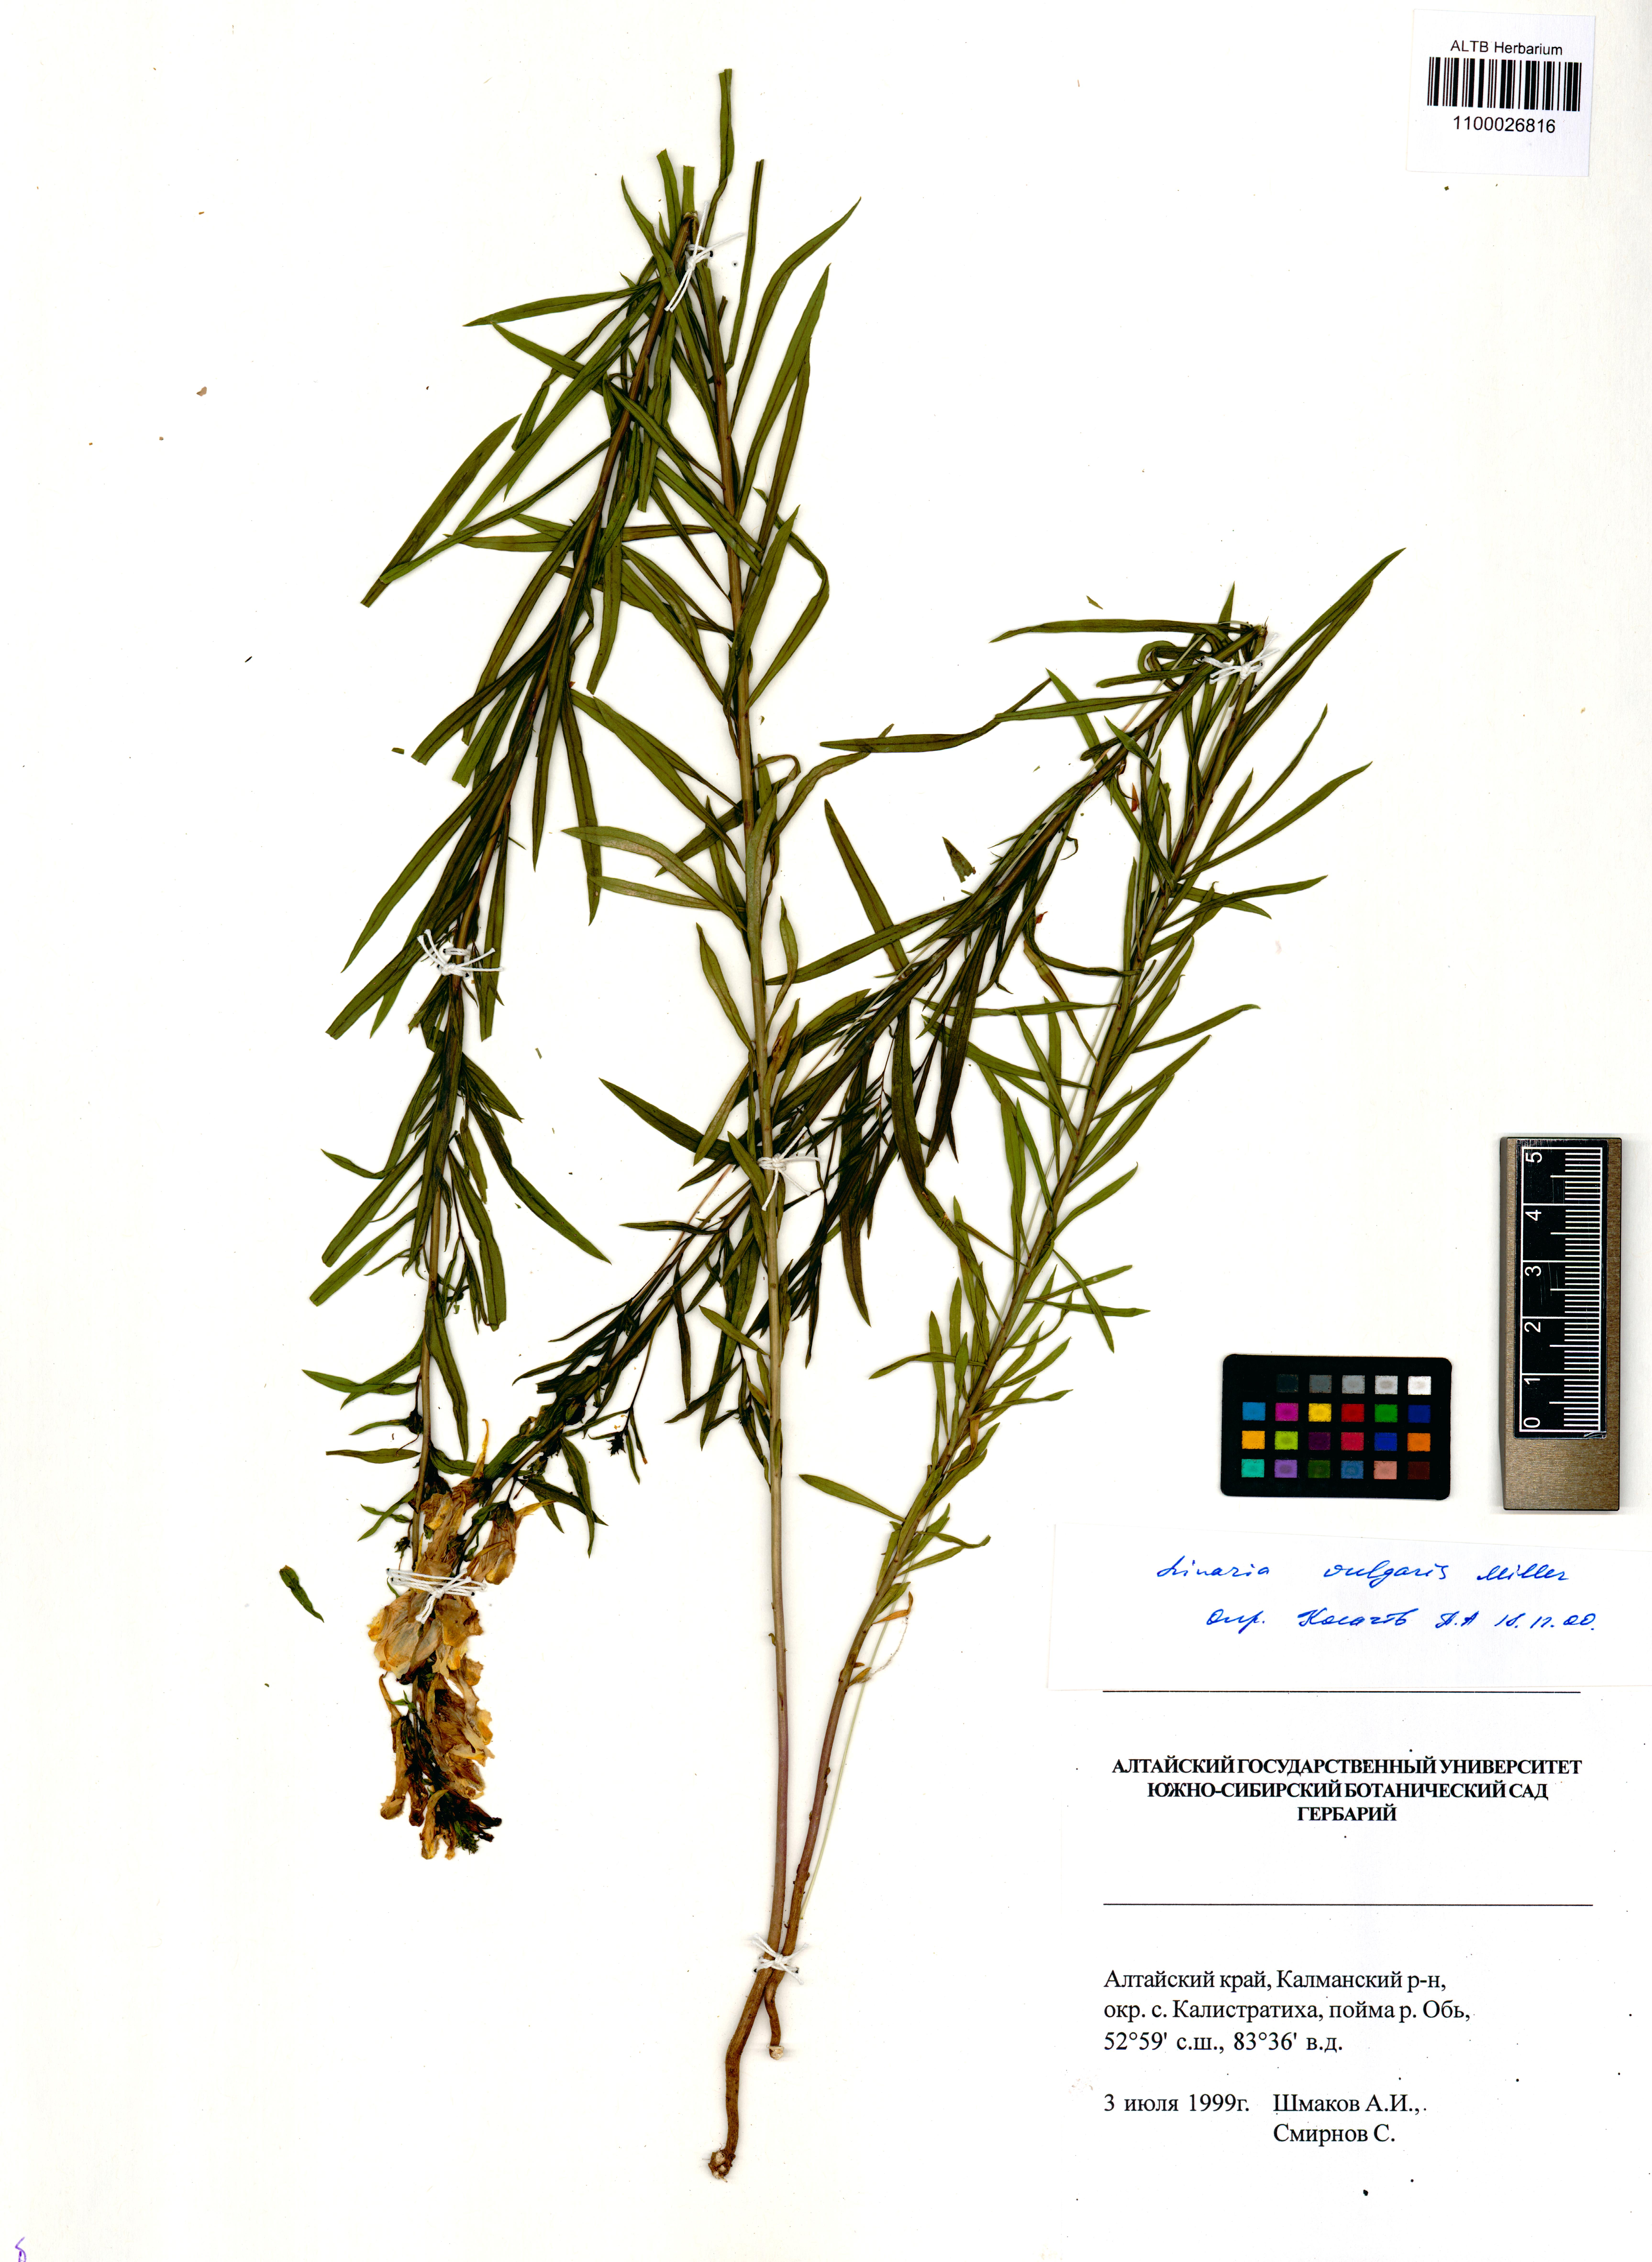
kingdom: Plantae
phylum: Tracheophyta
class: Magnoliopsida
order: Lamiales
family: Plantaginaceae
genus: Linaria
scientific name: Linaria vulgaris
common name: Butter and eggs
